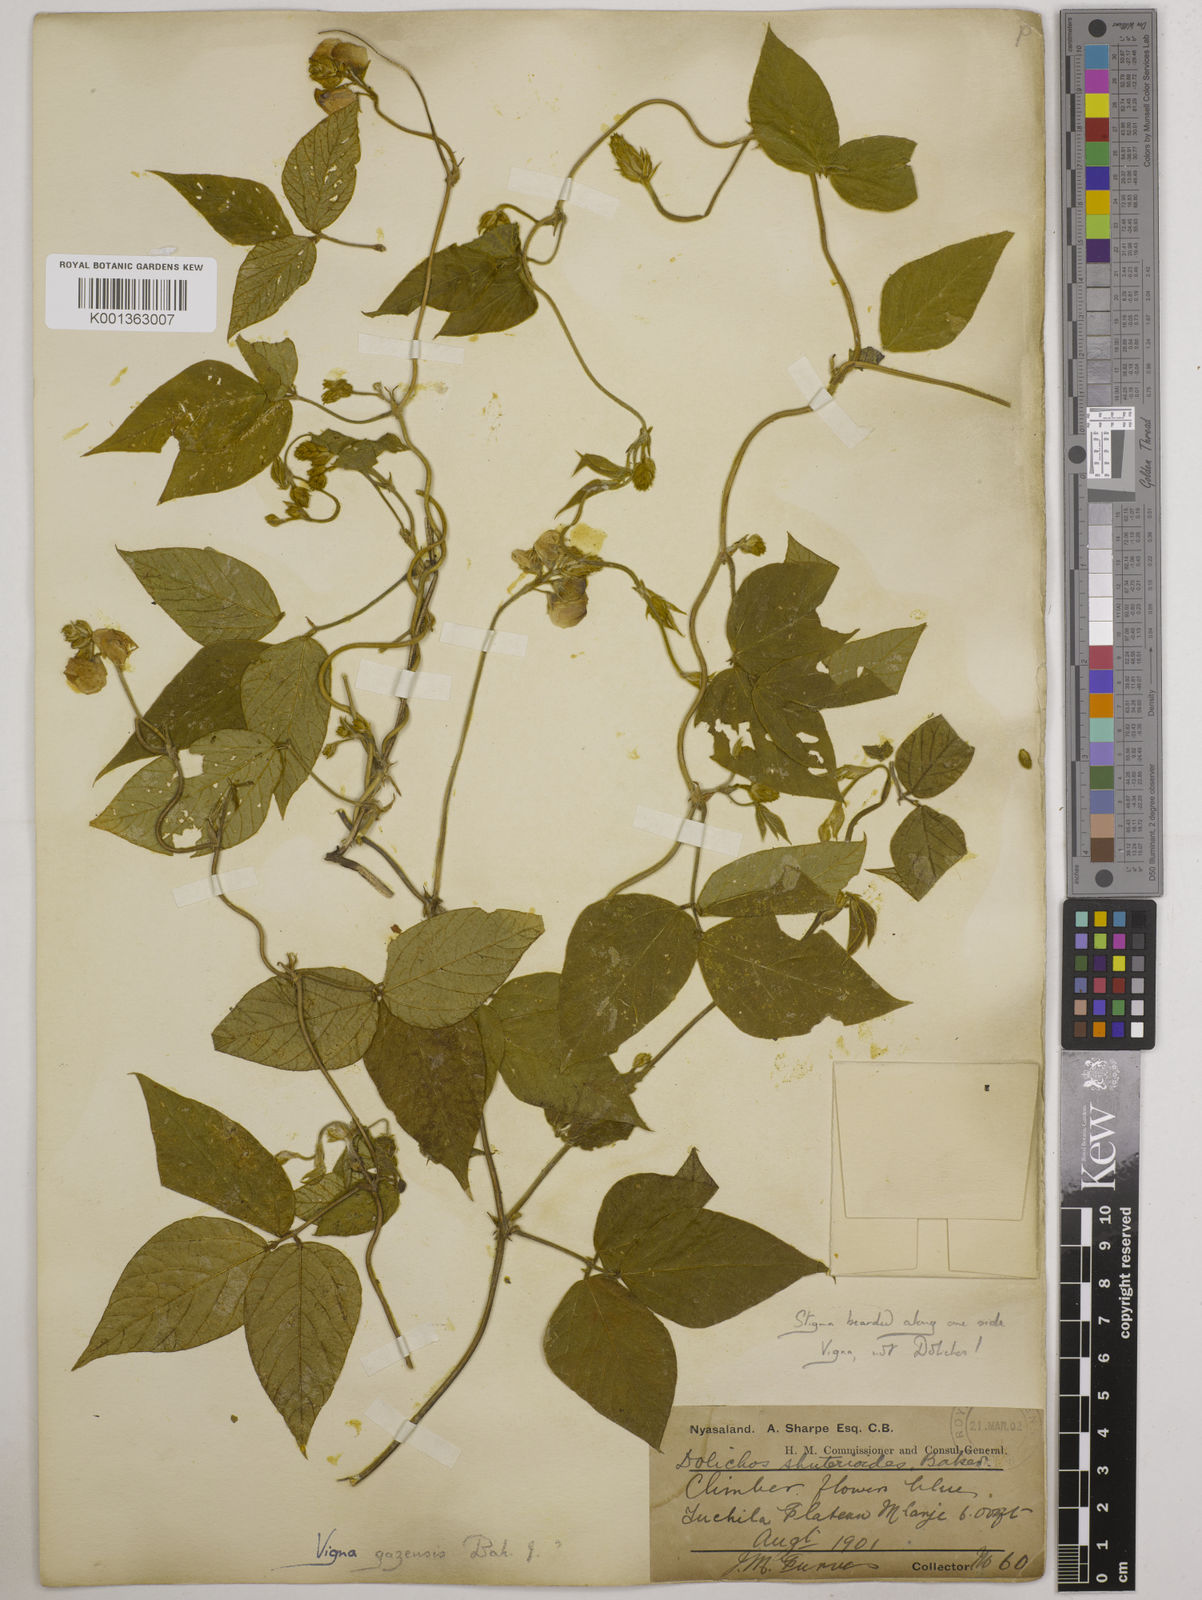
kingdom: Plantae
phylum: Tracheophyta
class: Magnoliopsida
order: Fabales
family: Fabaceae
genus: Vigna
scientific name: Vigna gazensis
